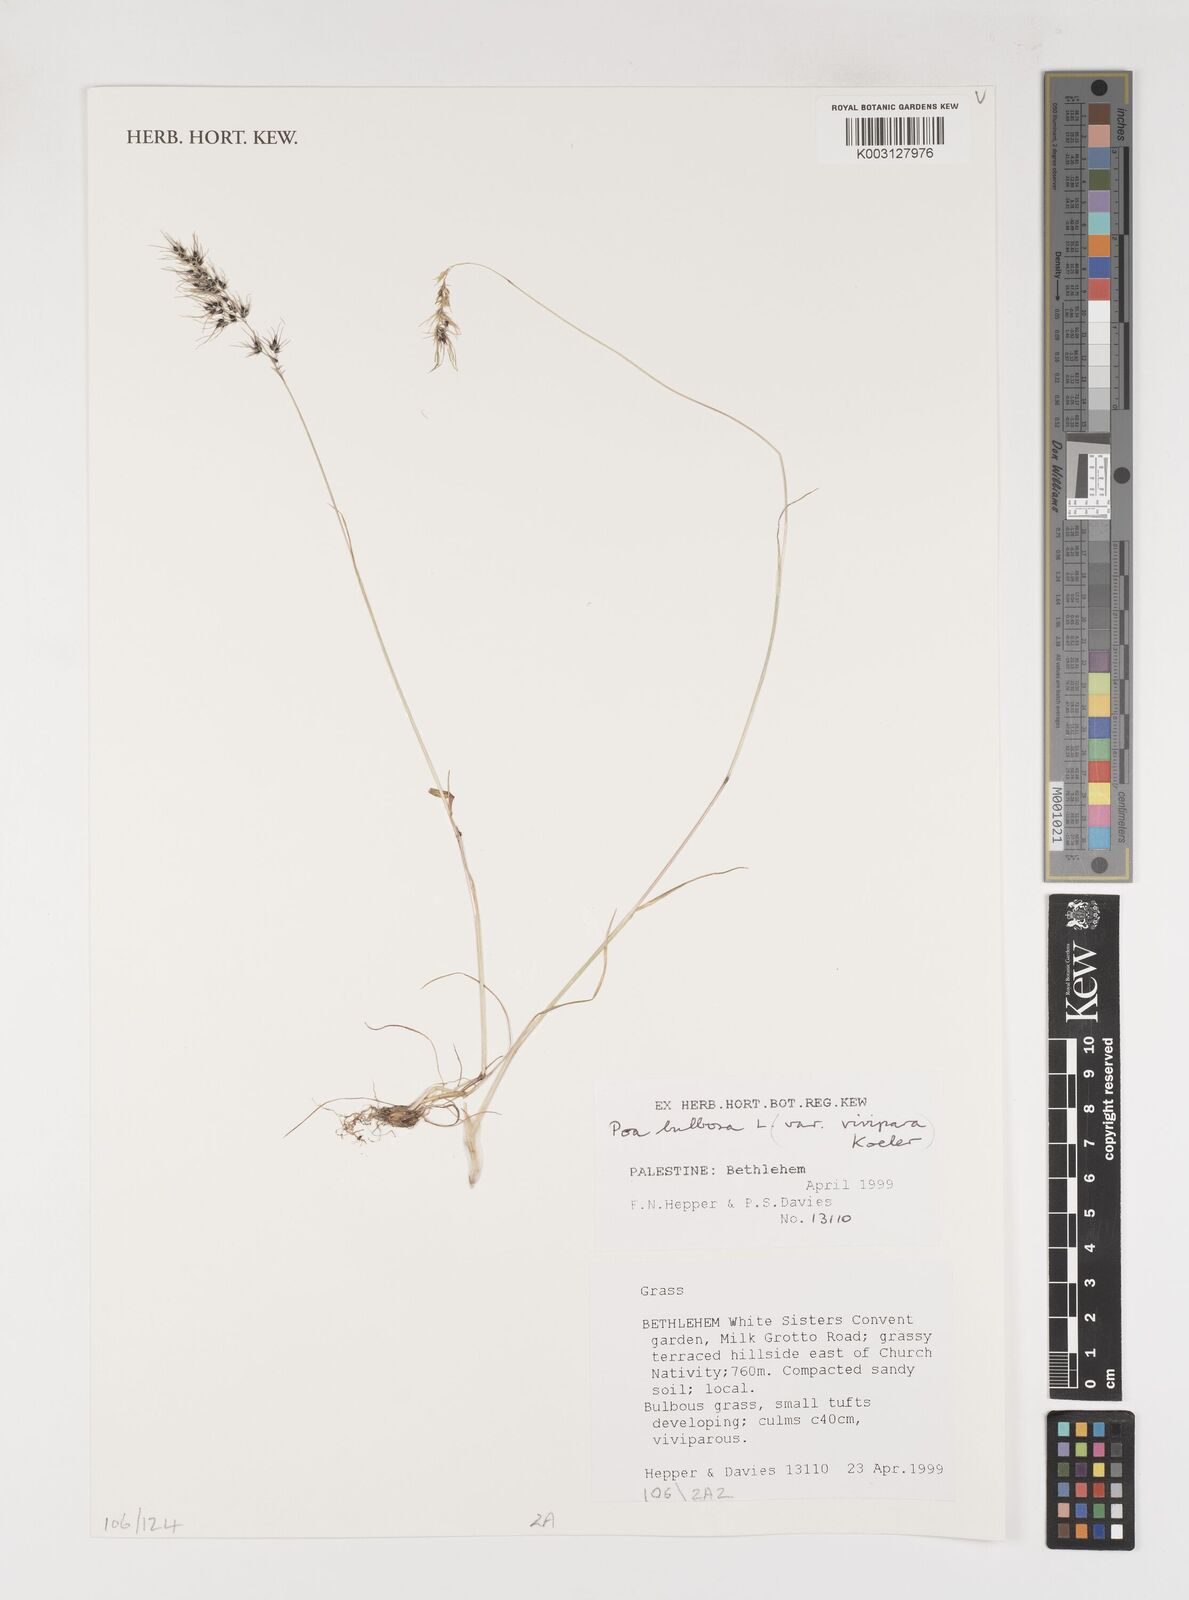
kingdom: Plantae
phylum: Tracheophyta
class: Liliopsida
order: Poales
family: Poaceae
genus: Poa
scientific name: Poa bulbosa
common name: Bulbous bluegrass
